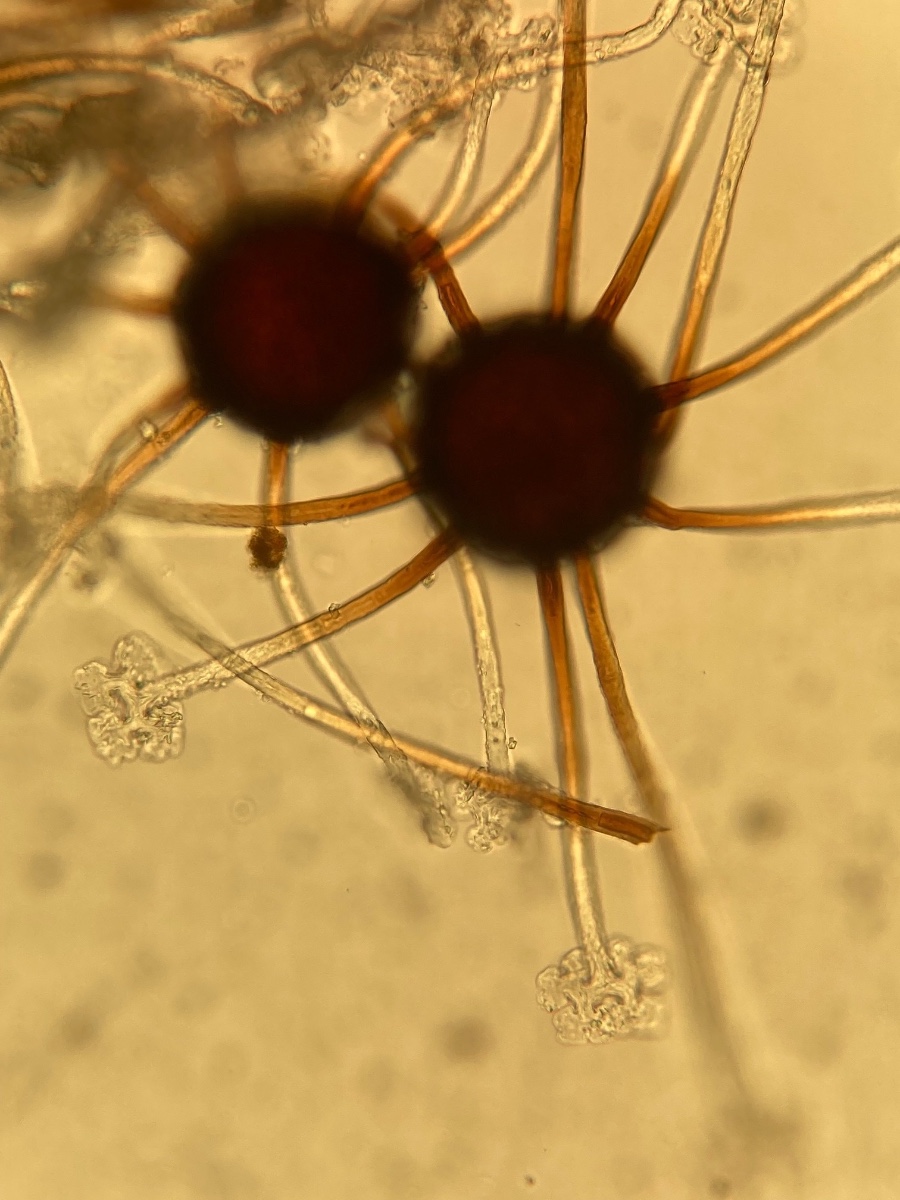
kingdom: Fungi
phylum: Ascomycota
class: Leotiomycetes
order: Helotiales
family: Erysiphaceae
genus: Podosphaera
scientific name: Podosphaera amelanchieris
